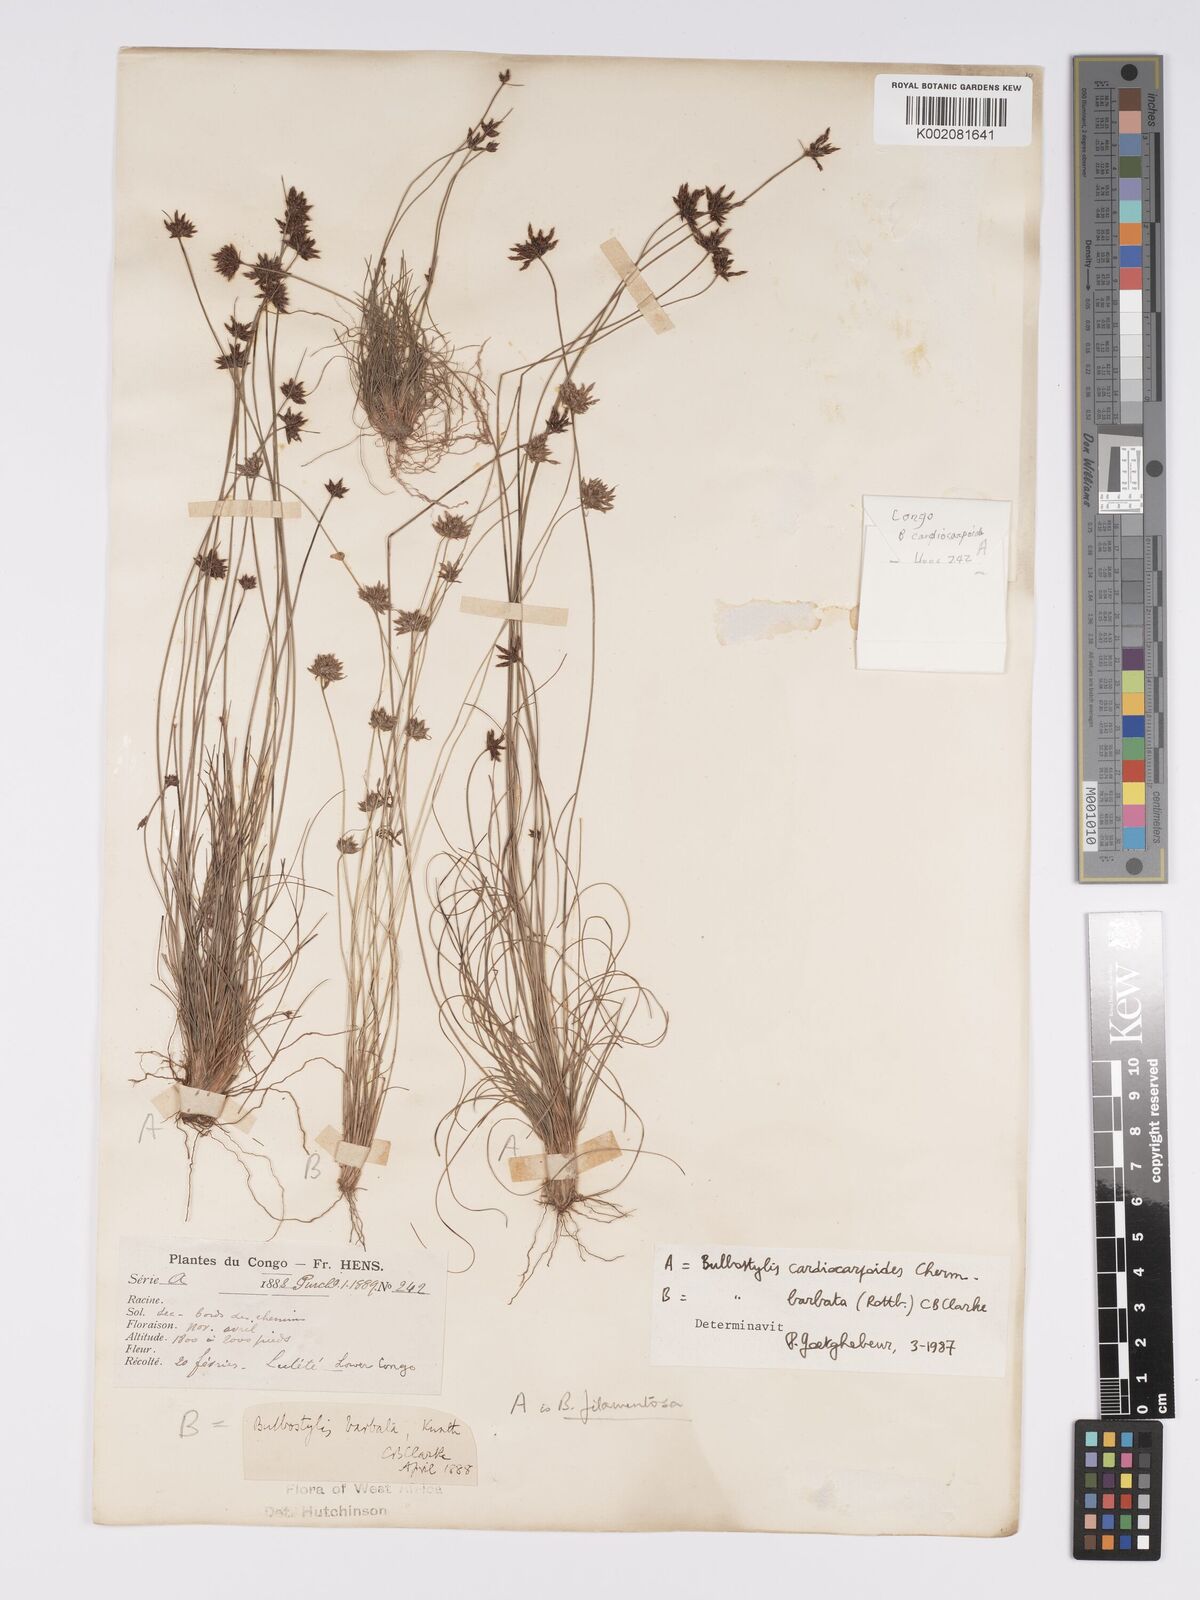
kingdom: Plantae
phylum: Tracheophyta
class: Liliopsida
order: Poales
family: Cyperaceae
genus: Bulbostylis
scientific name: Bulbostylis cardiocarpoides
